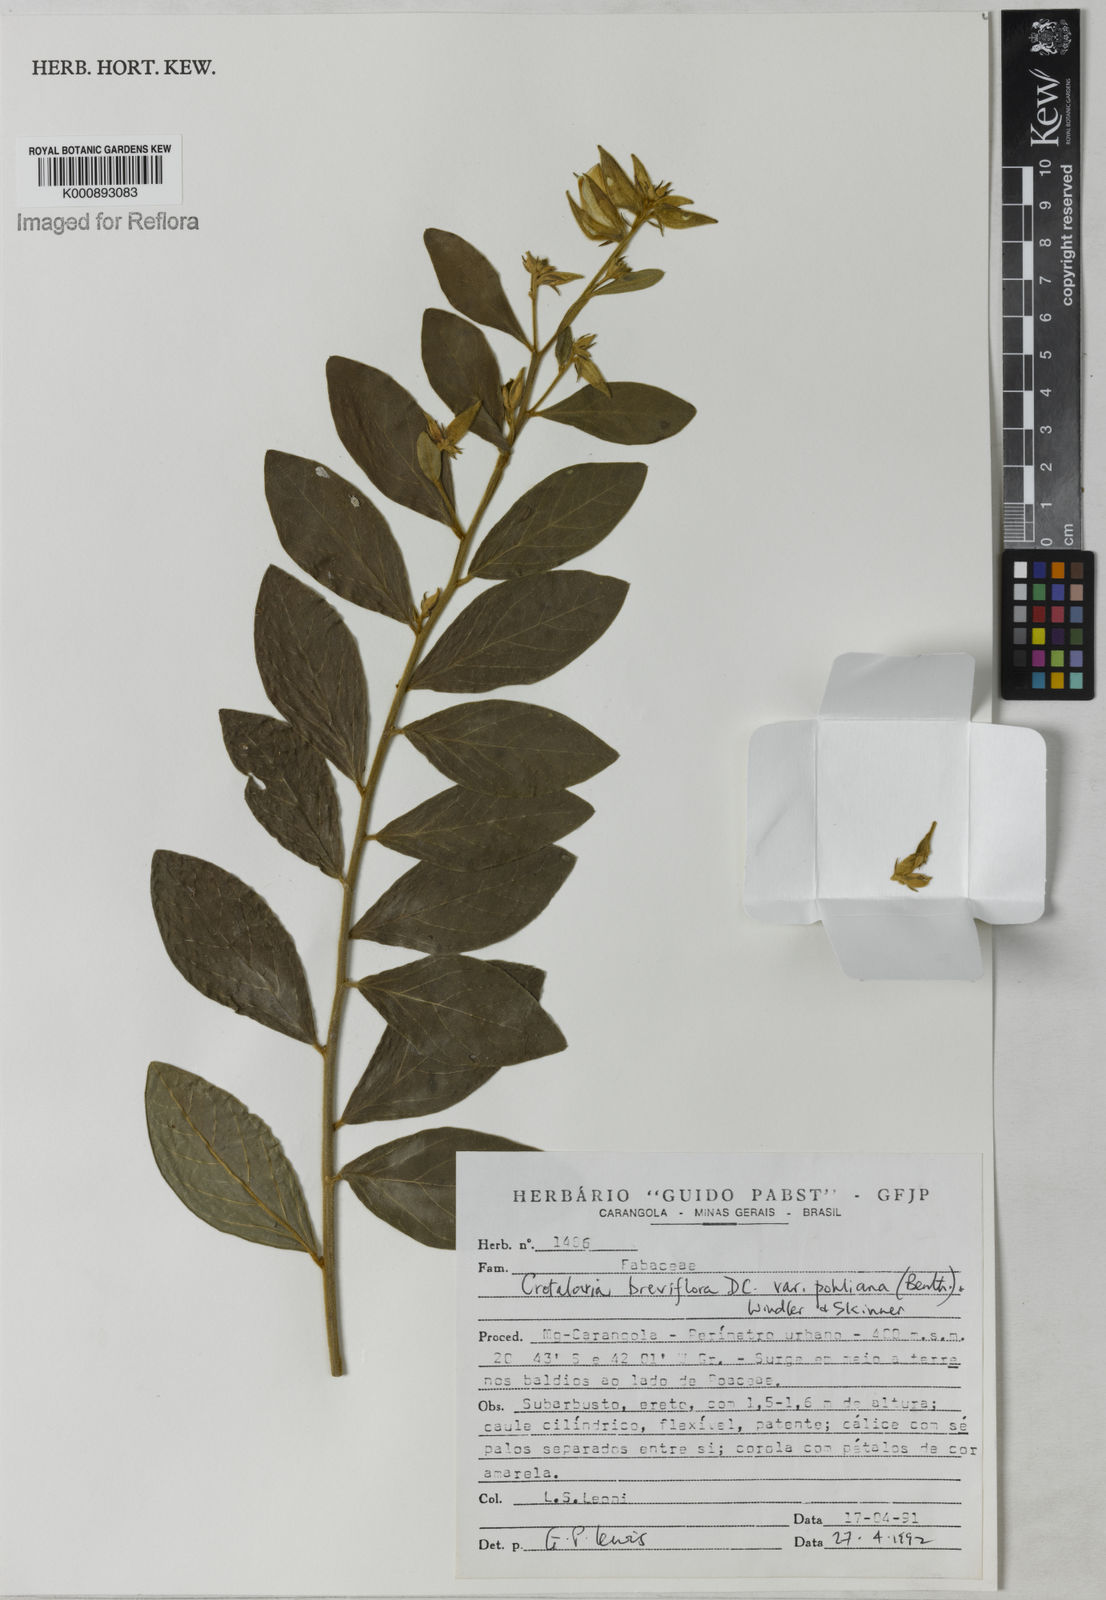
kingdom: Plantae
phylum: Tracheophyta
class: Magnoliopsida
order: Fabales
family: Fabaceae
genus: Crotalaria
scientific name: Crotalaria subdecurrens
